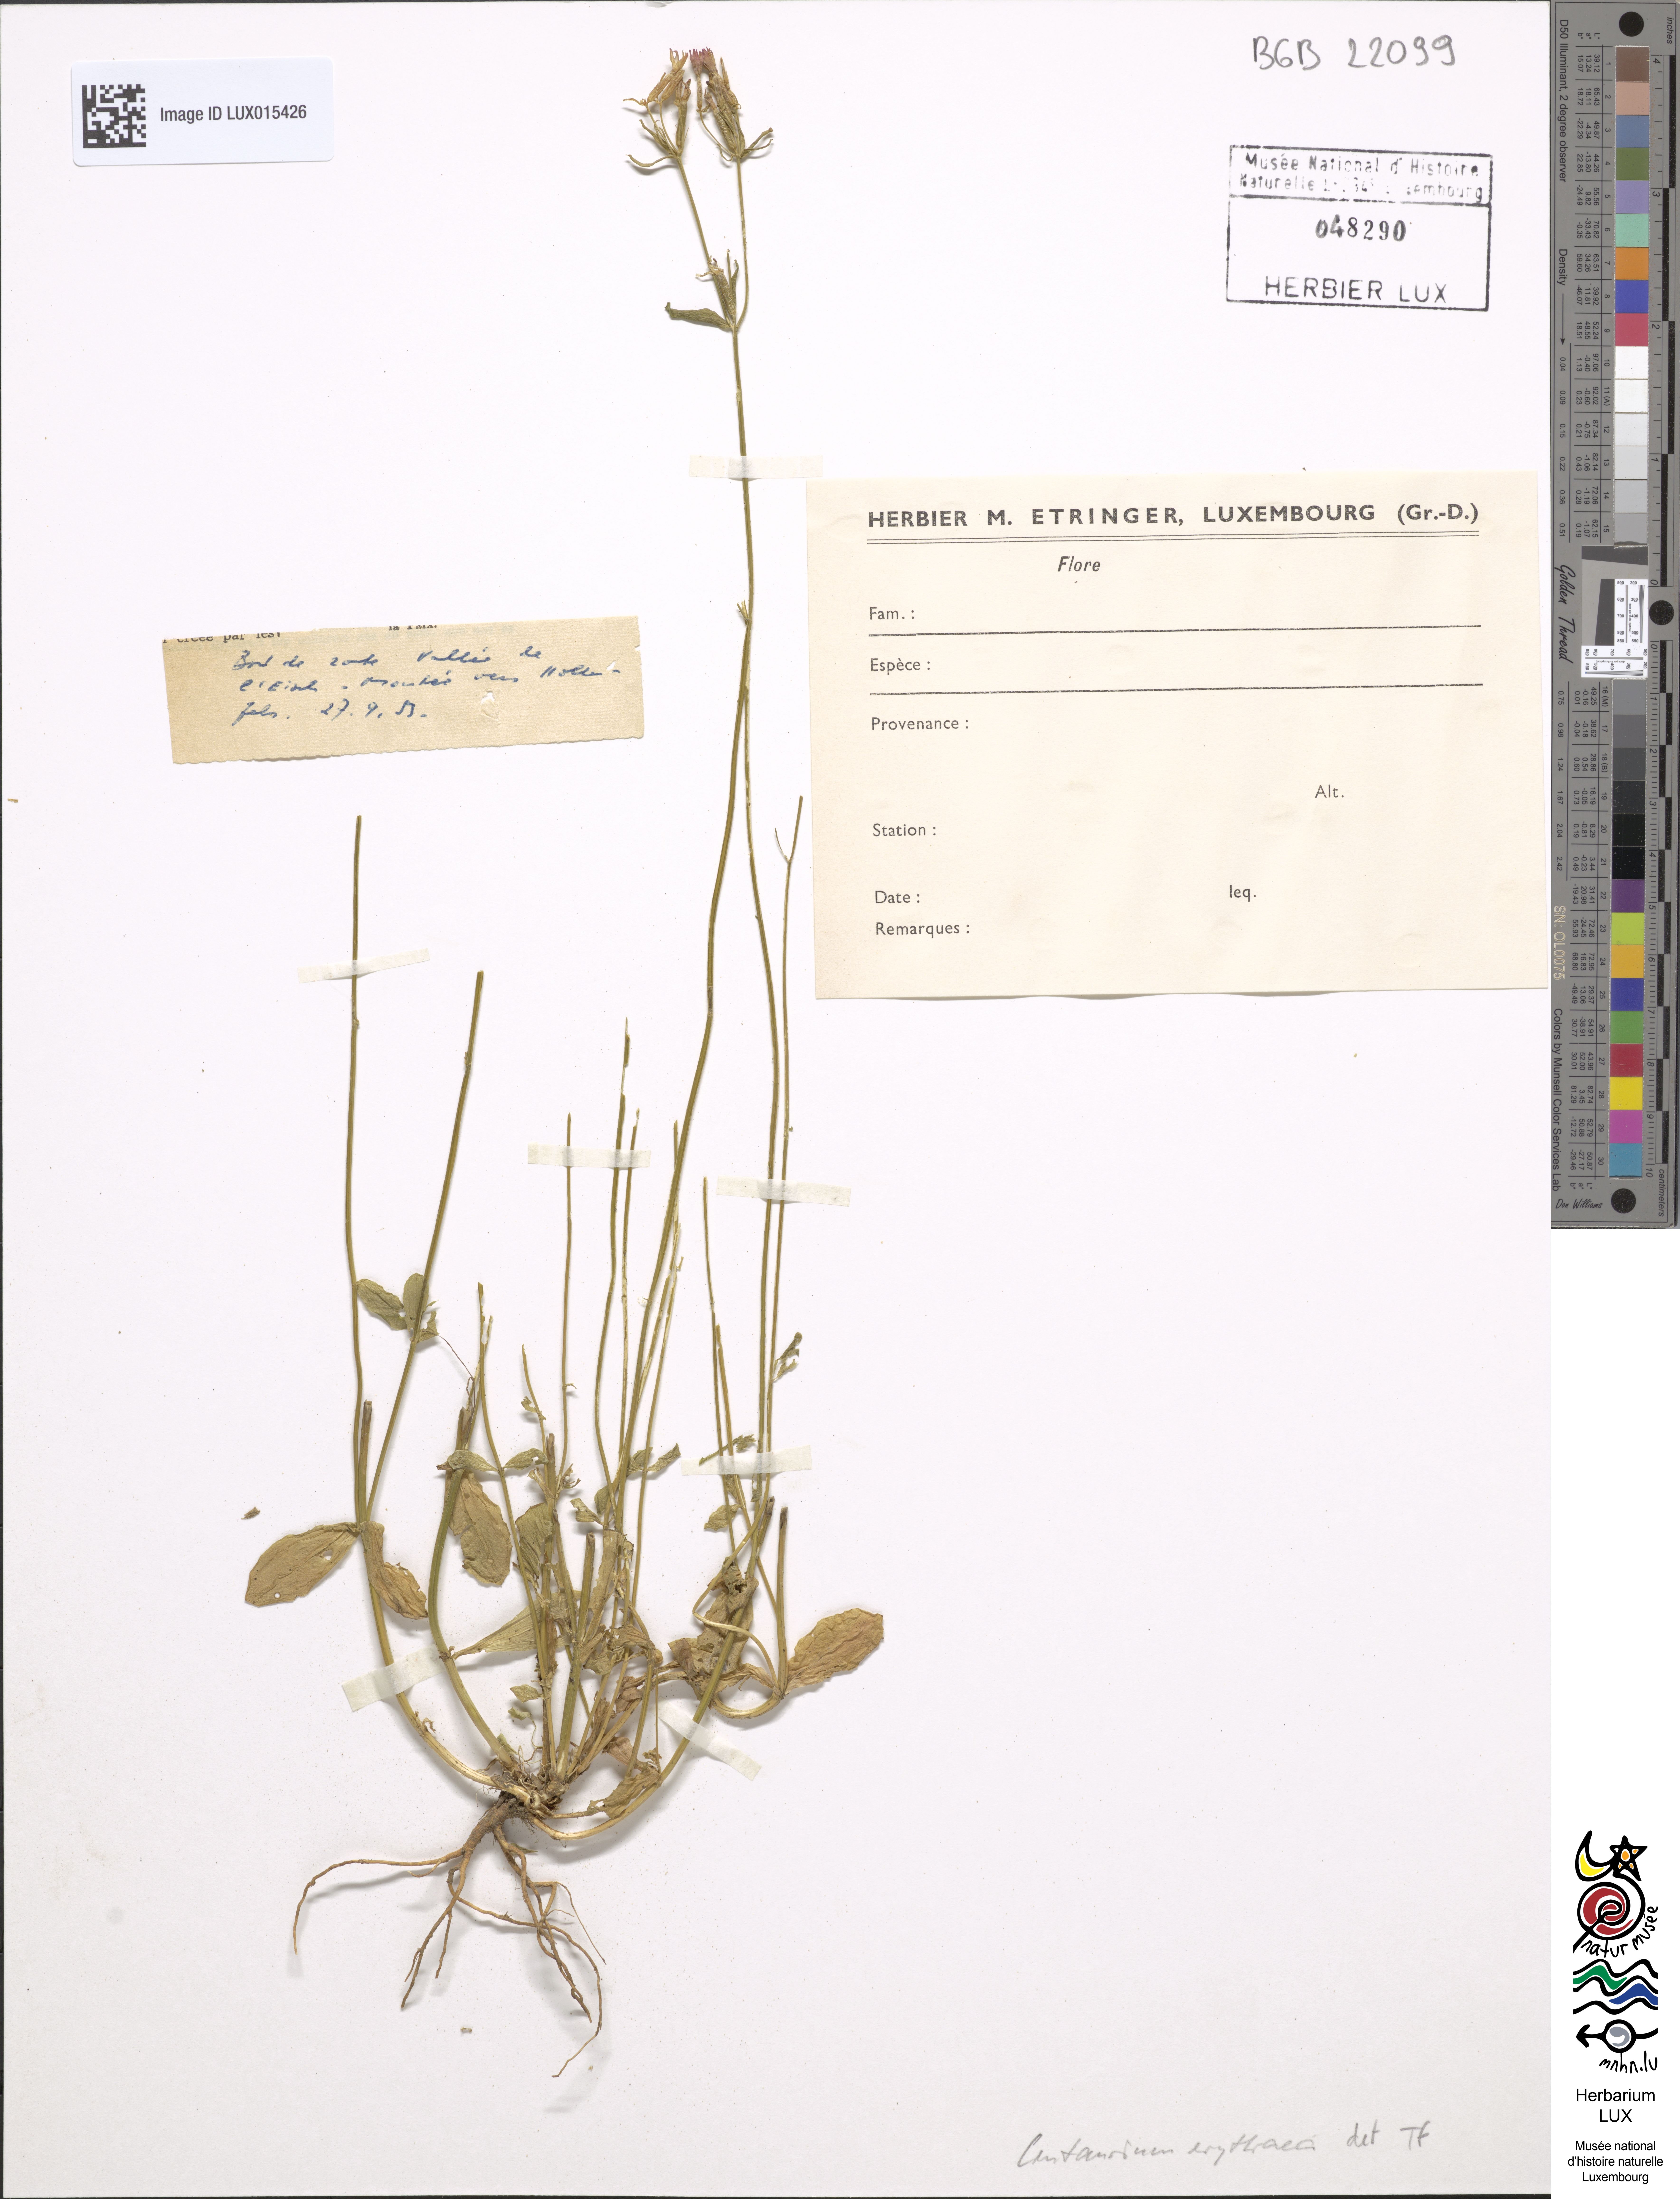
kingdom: Plantae
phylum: Tracheophyta
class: Magnoliopsida
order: Gentianales
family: Gentianaceae
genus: Centaurium
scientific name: Centaurium erythraea
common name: Common centaury
